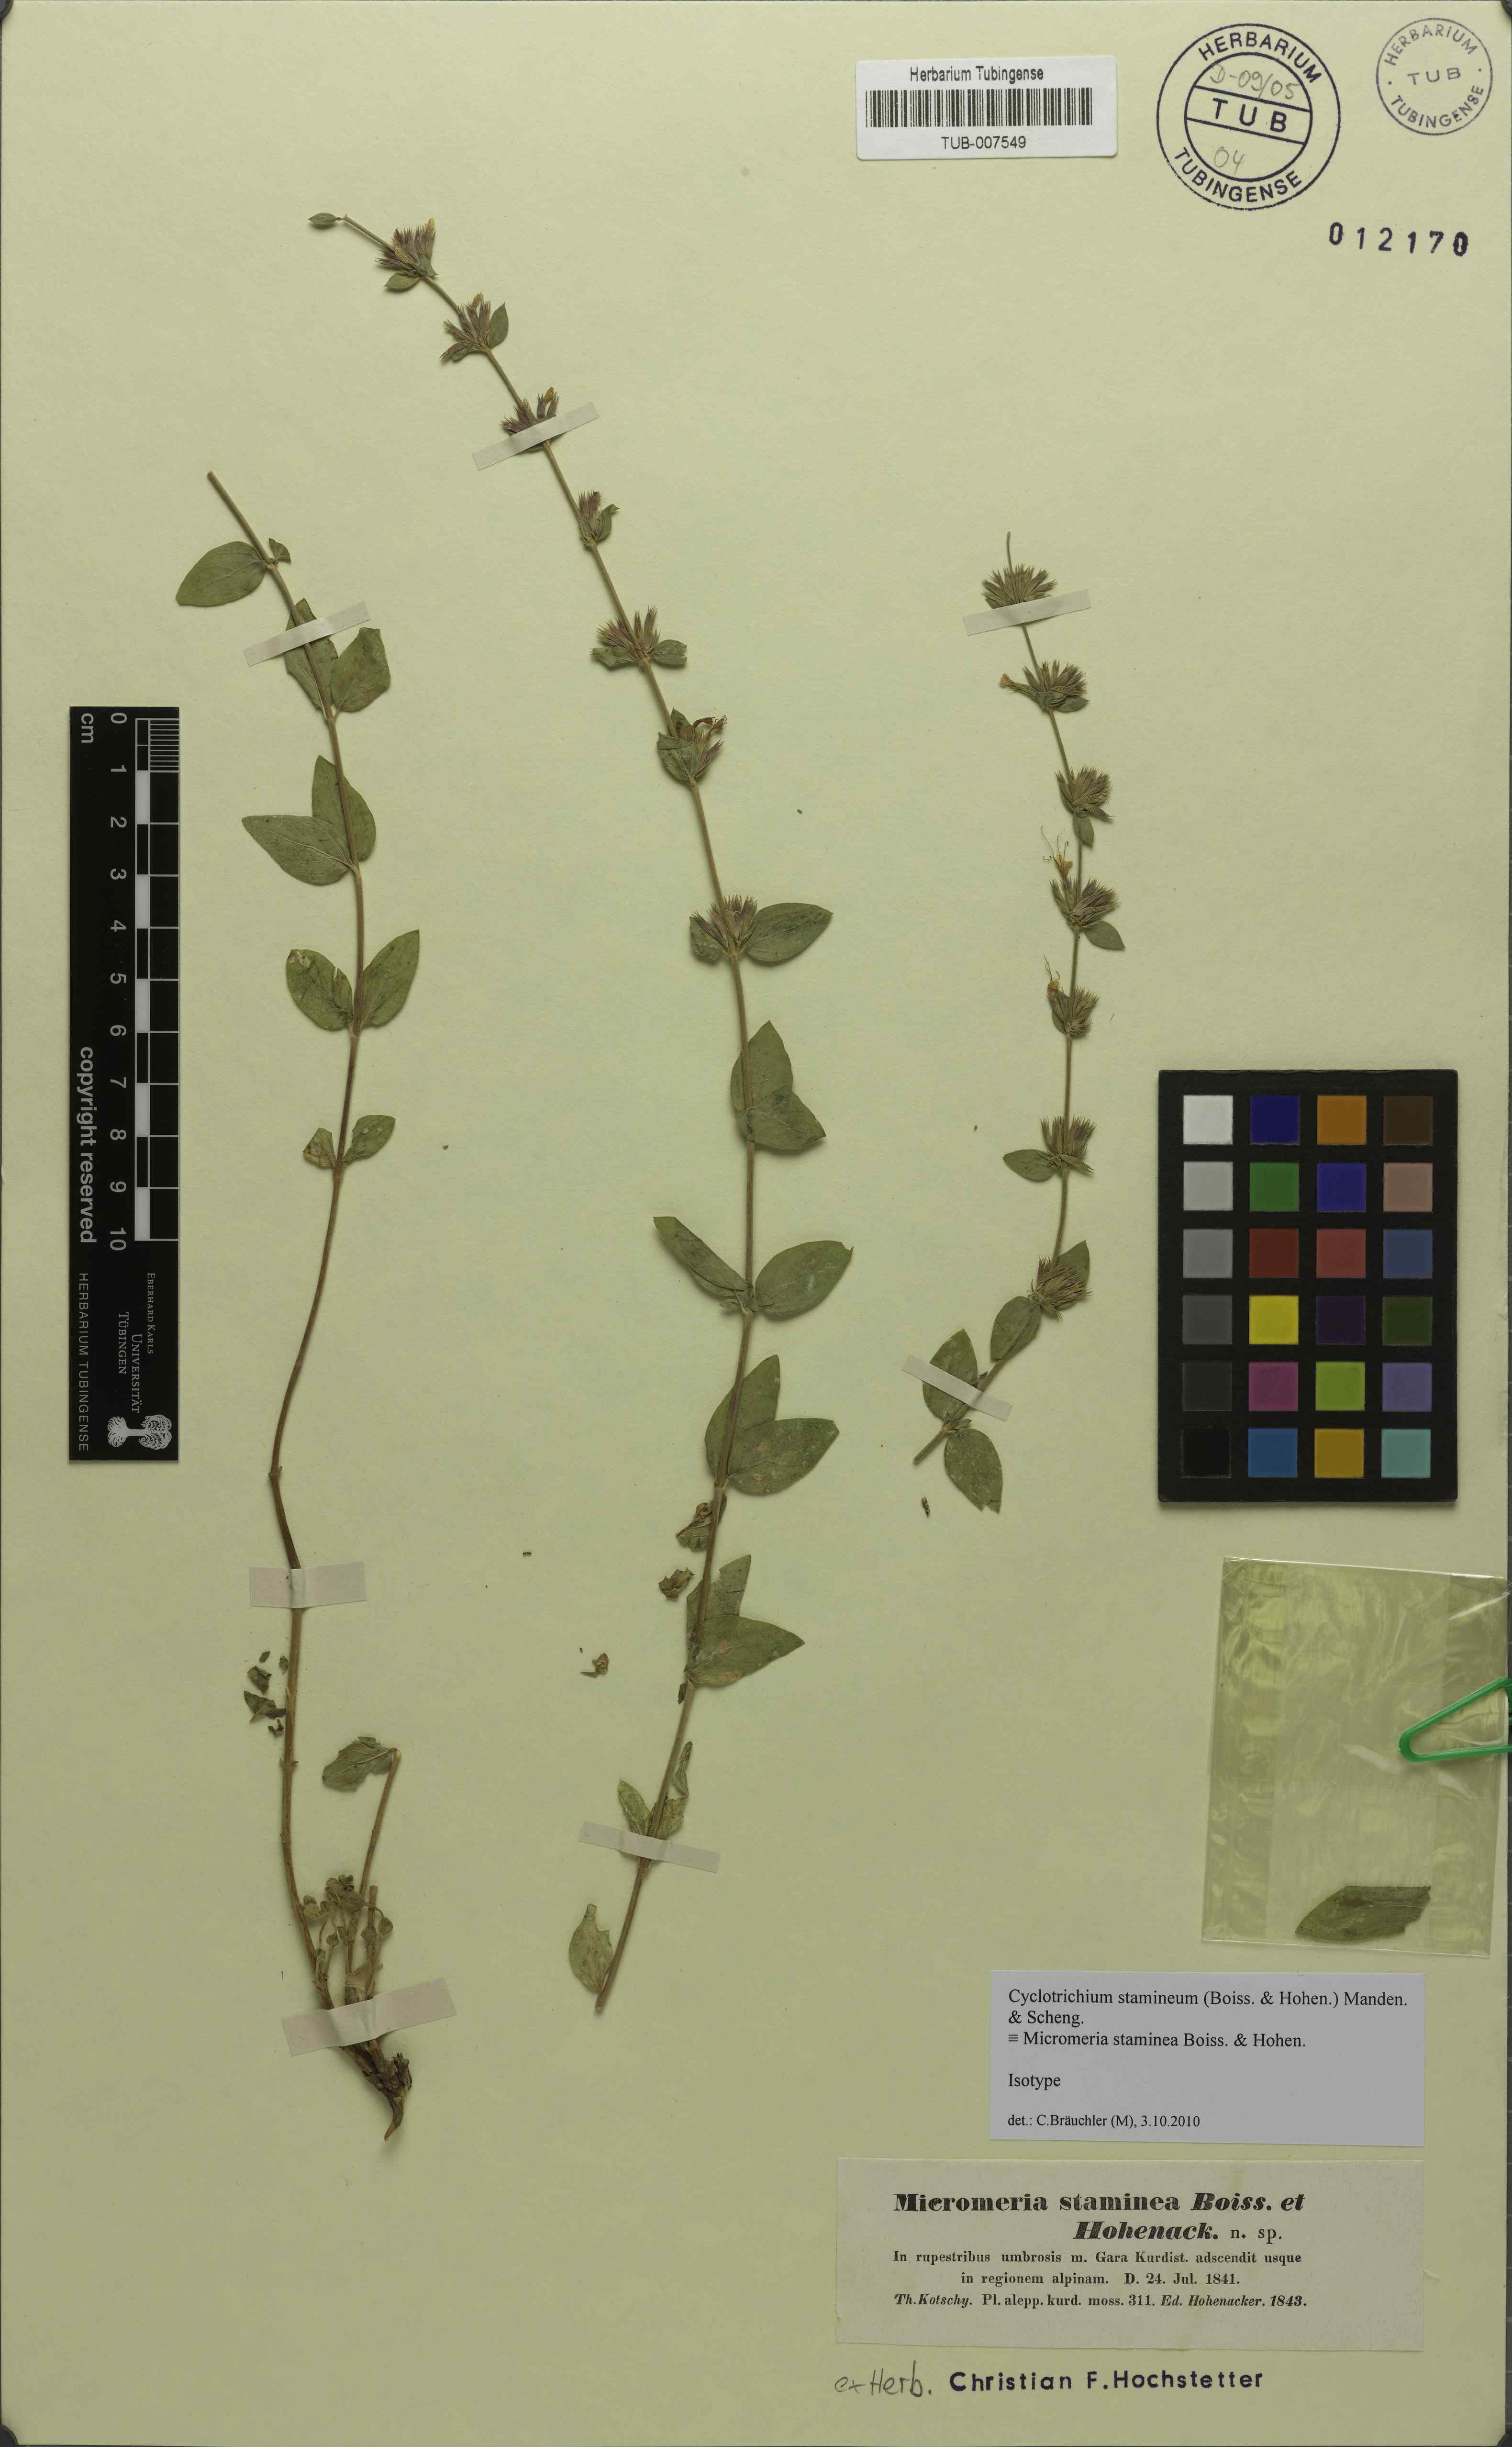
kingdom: Plantae
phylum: Tracheophyta
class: Magnoliopsida
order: Lamiales
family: Lamiaceae
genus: Cyclotrichium
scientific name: Cyclotrichium stamineum
